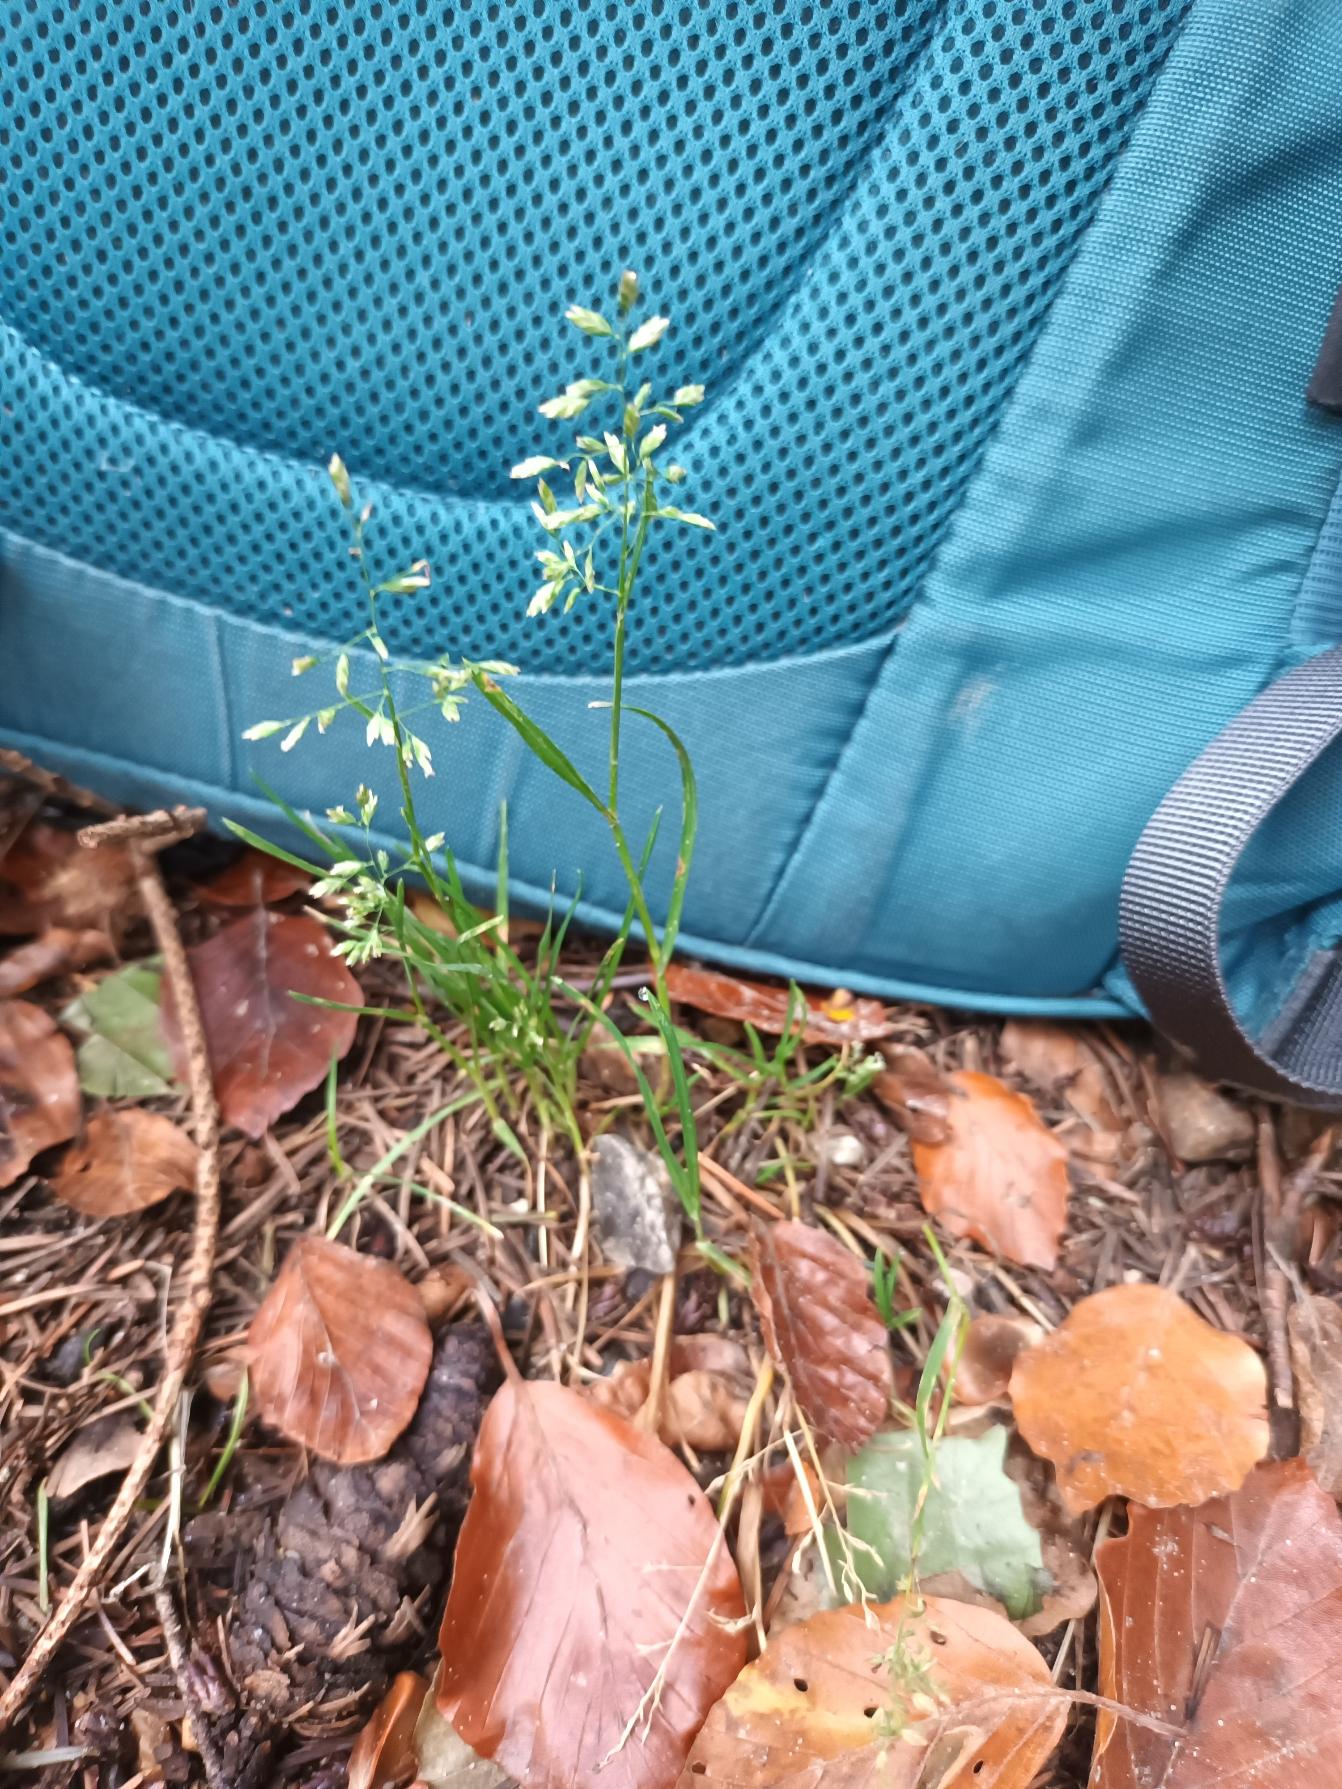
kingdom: Plantae
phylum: Tracheophyta
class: Liliopsida
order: Poales
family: Poaceae
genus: Poa
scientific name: Poa annua
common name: Enårig rapgræs
